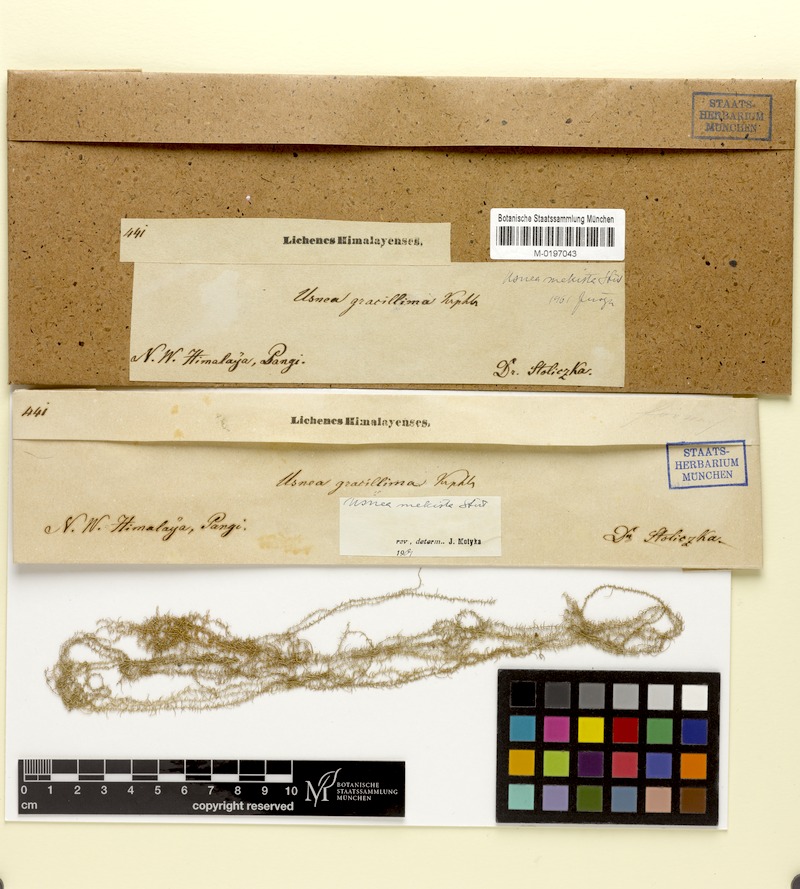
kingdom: Fungi
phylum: Ascomycota
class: Lecanoromycetes
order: Lecanorales
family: Parmeliaceae
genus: Usnea
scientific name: Usnea mekista
